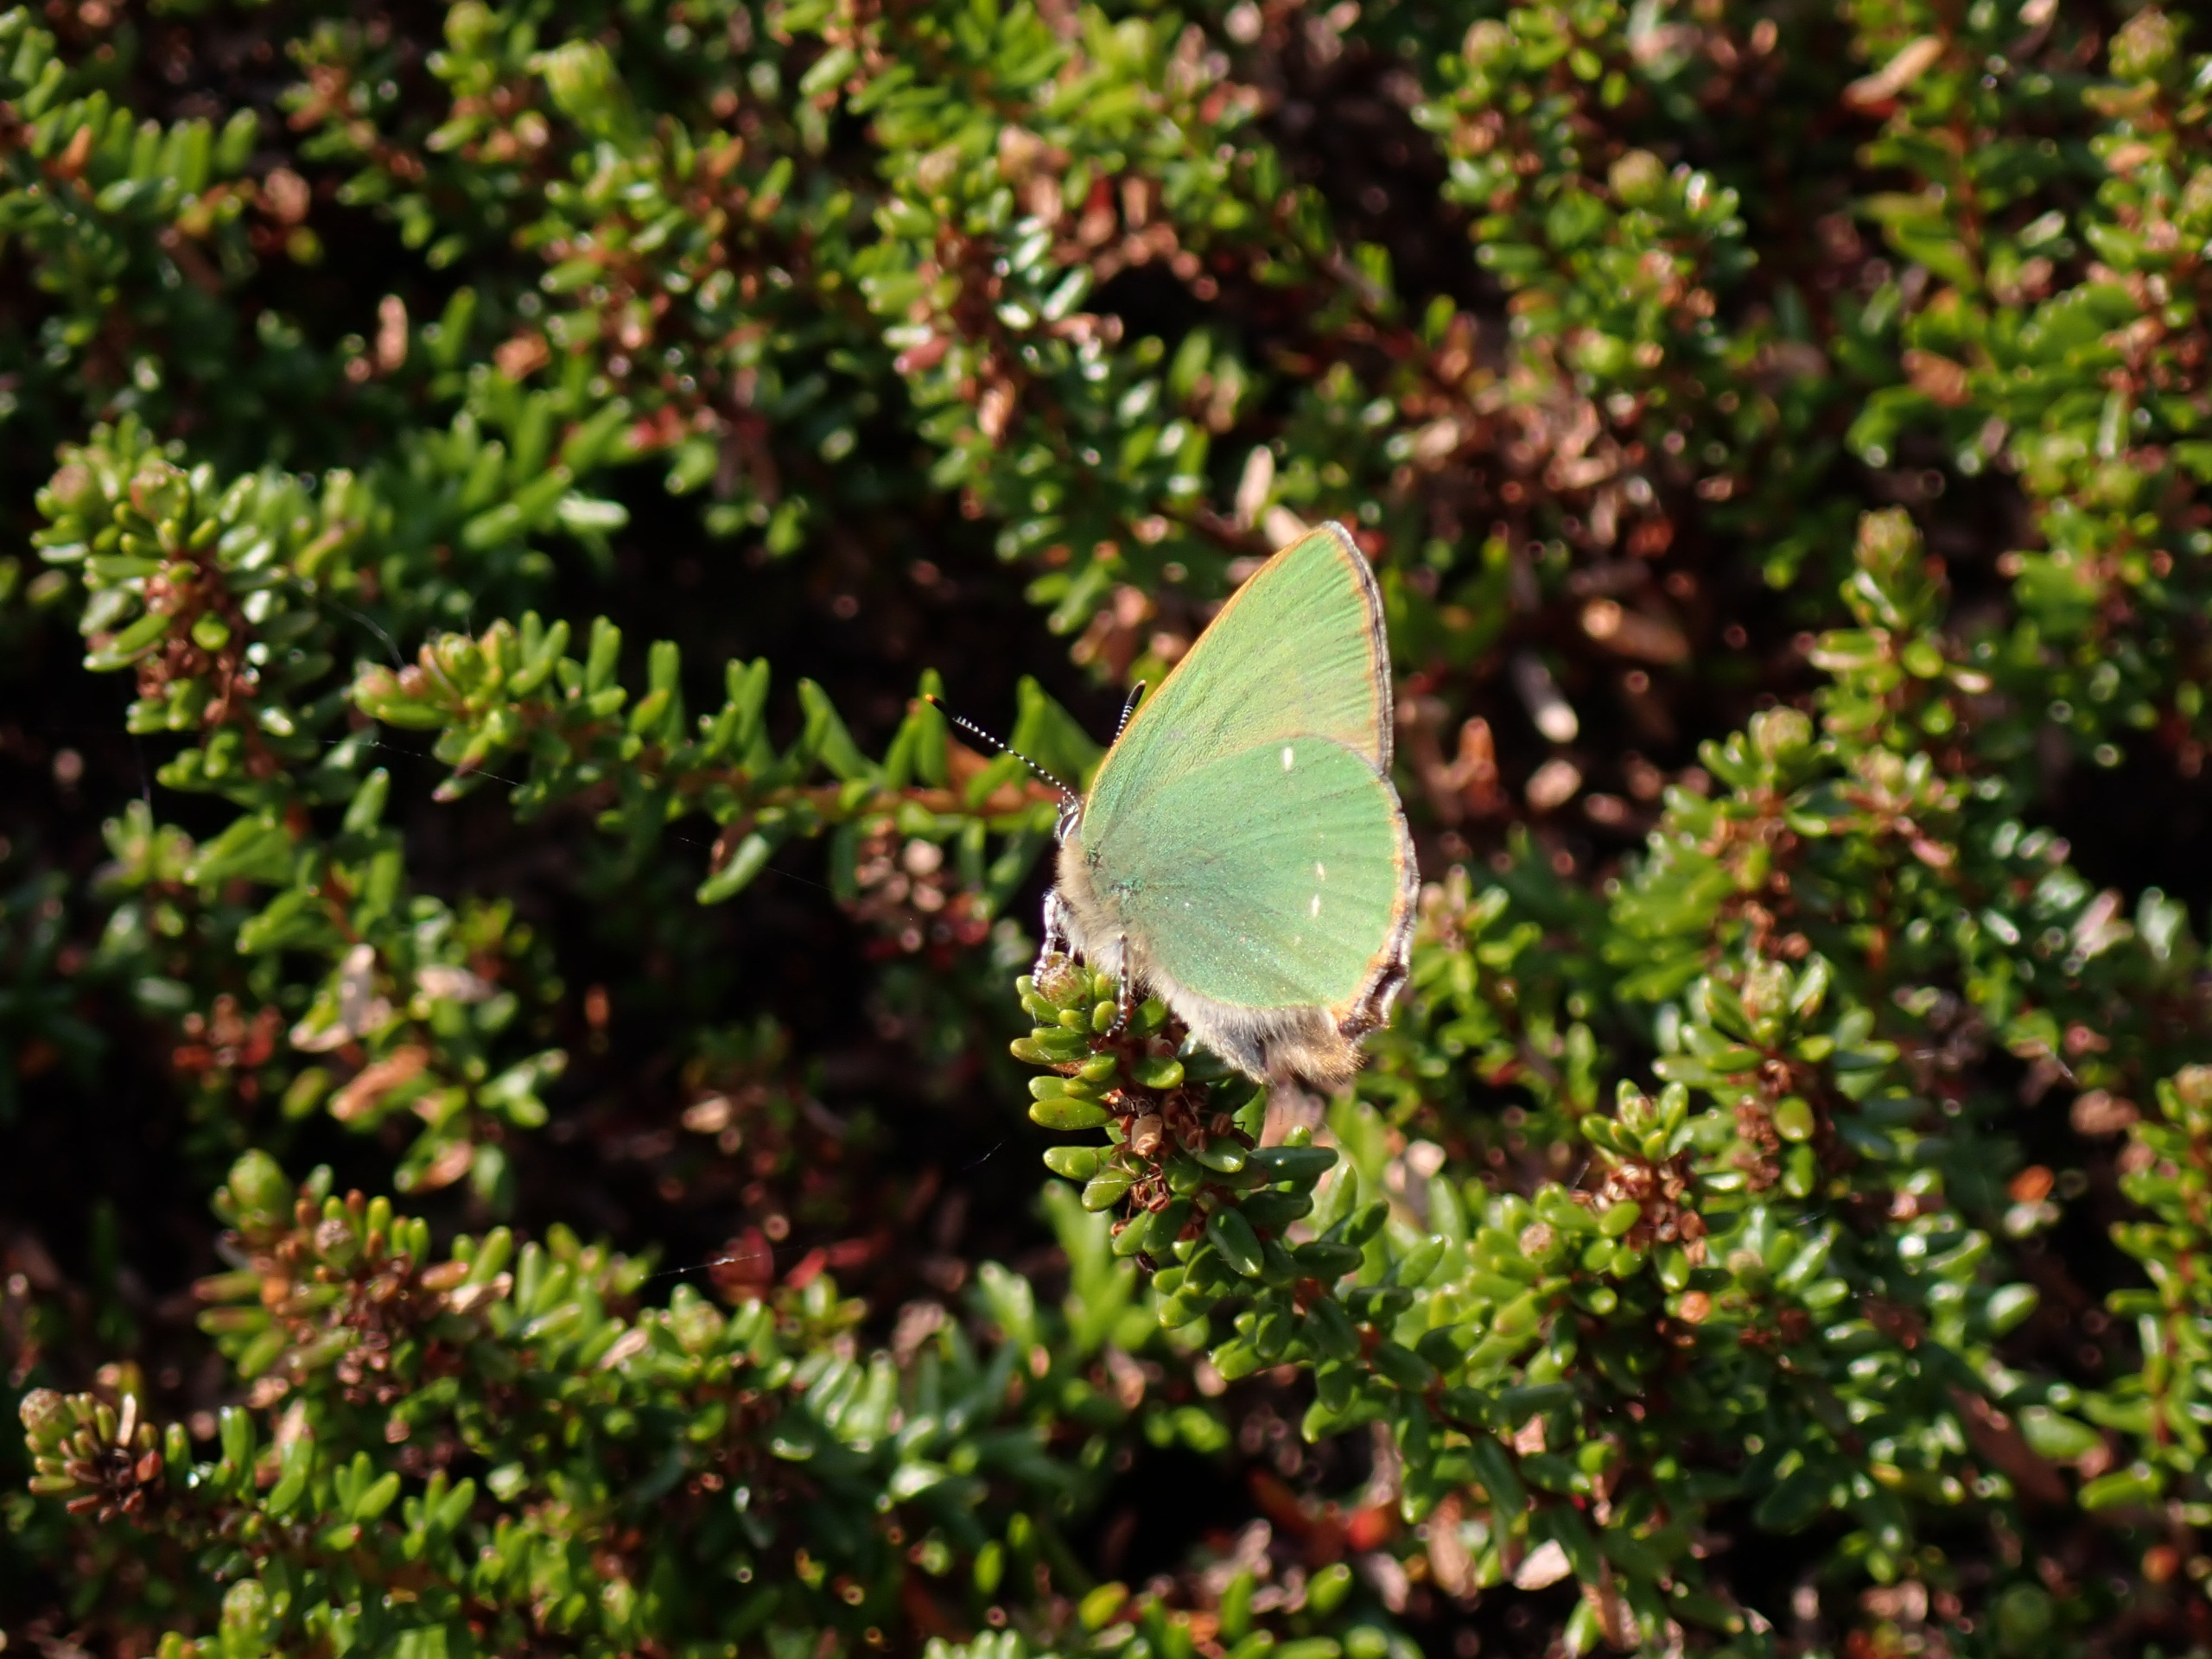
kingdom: Animalia
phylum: Arthropoda
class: Insecta
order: Lepidoptera
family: Lycaenidae
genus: Callophrys
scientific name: Callophrys rubi
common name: Grøn busksommerfugl
